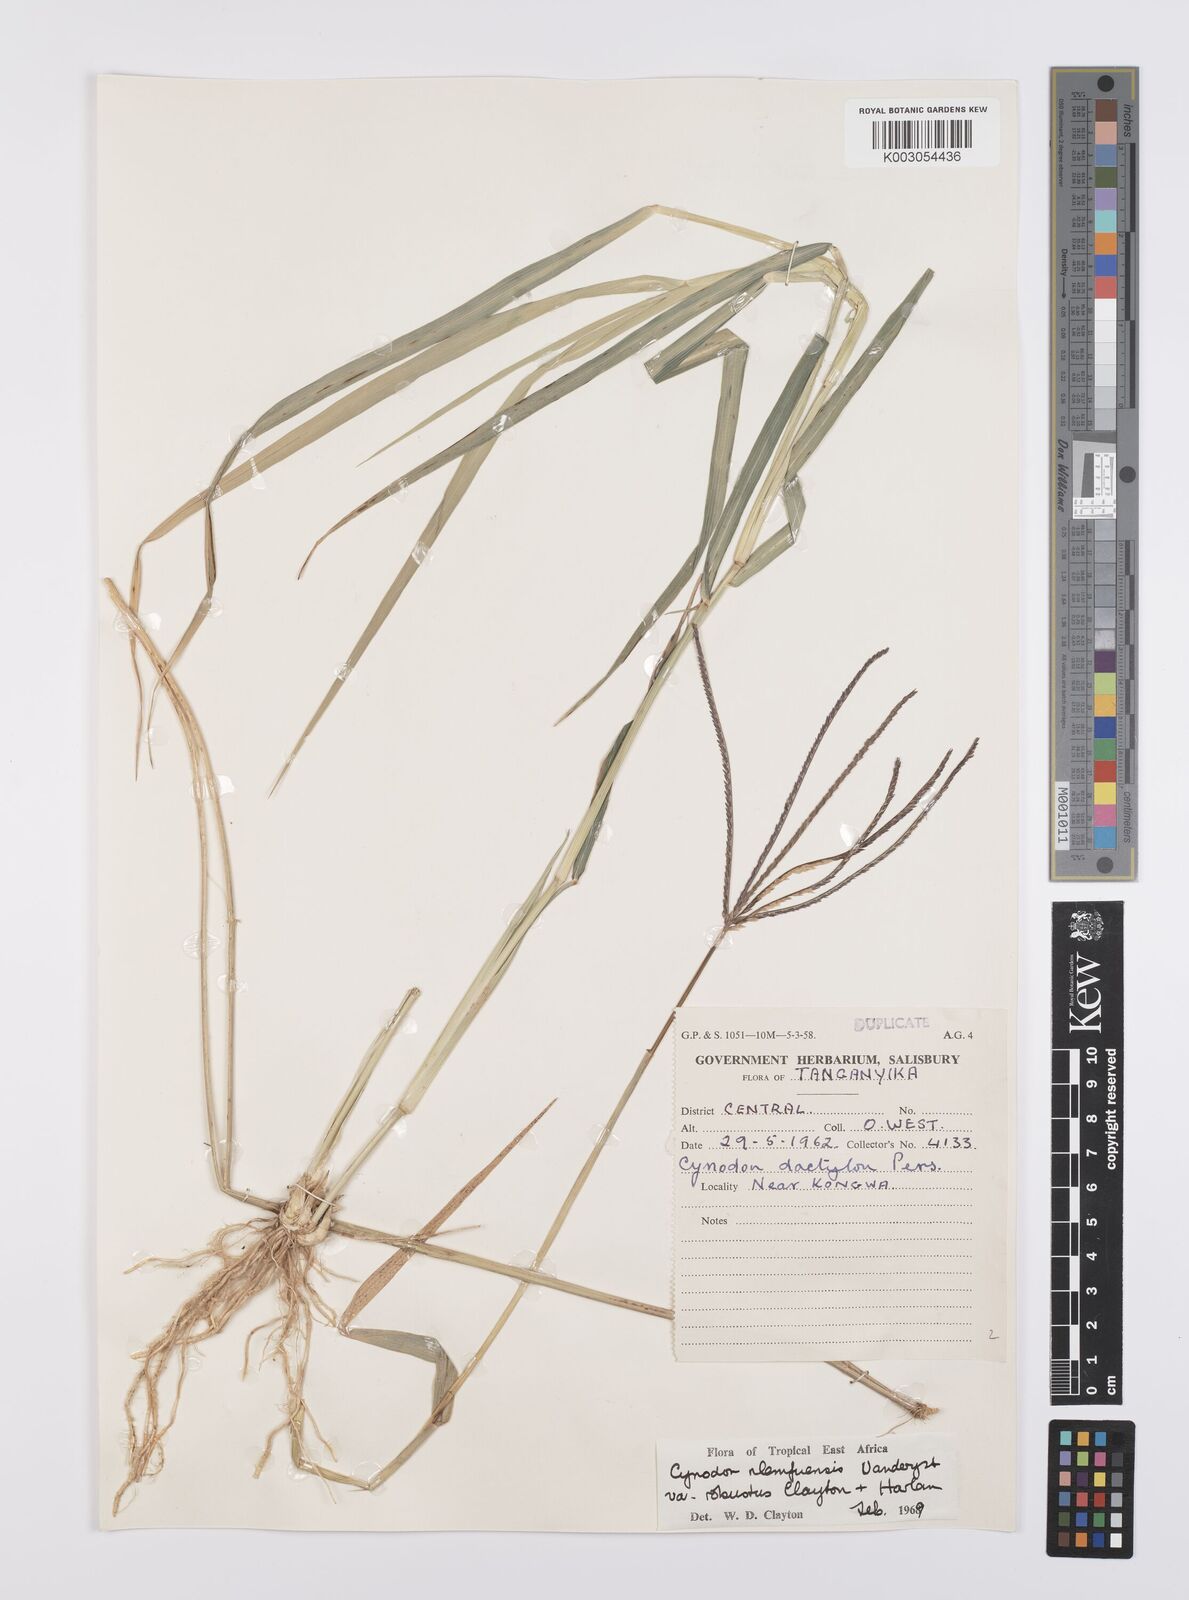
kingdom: Plantae
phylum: Tracheophyta
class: Liliopsida
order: Poales
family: Poaceae
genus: Cynodon
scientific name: Cynodon nlemfuensis
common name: African bermudagrass
